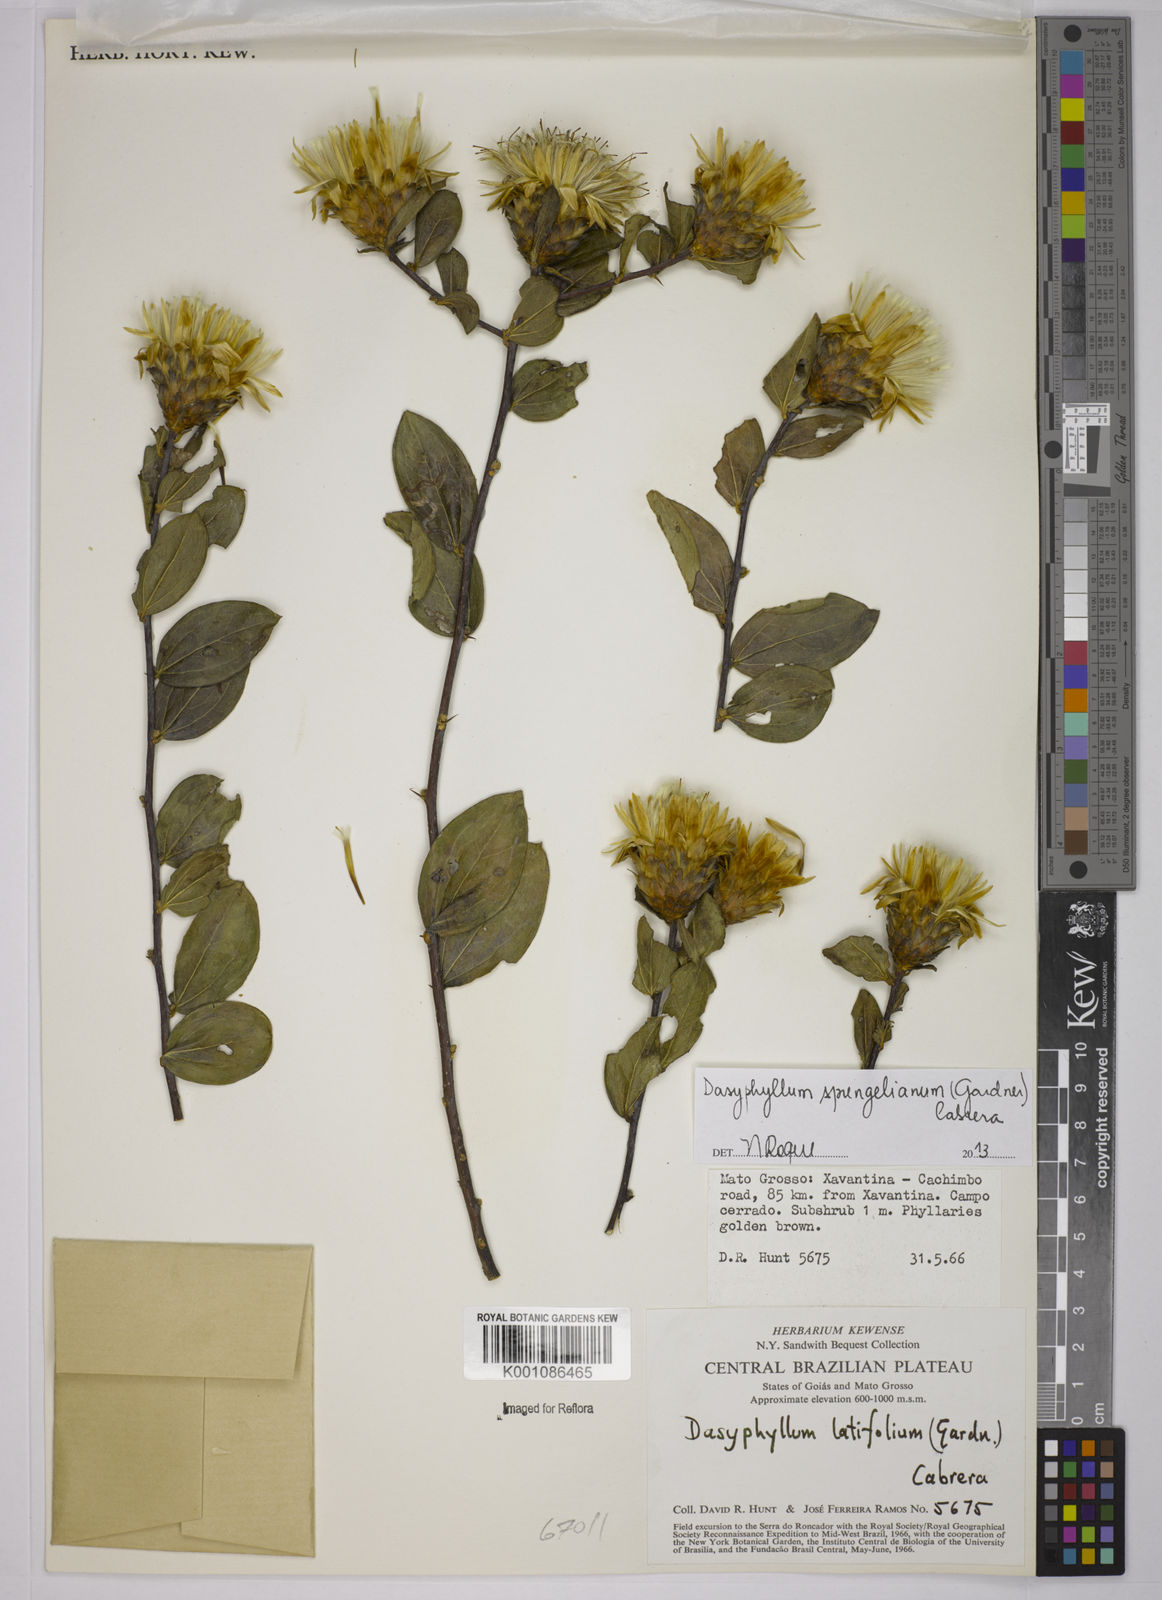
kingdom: Plantae
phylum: Tracheophyta
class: Magnoliopsida
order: Asterales
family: Asteraceae
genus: Dasyphyllum
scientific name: Dasyphyllum sprengelianum
